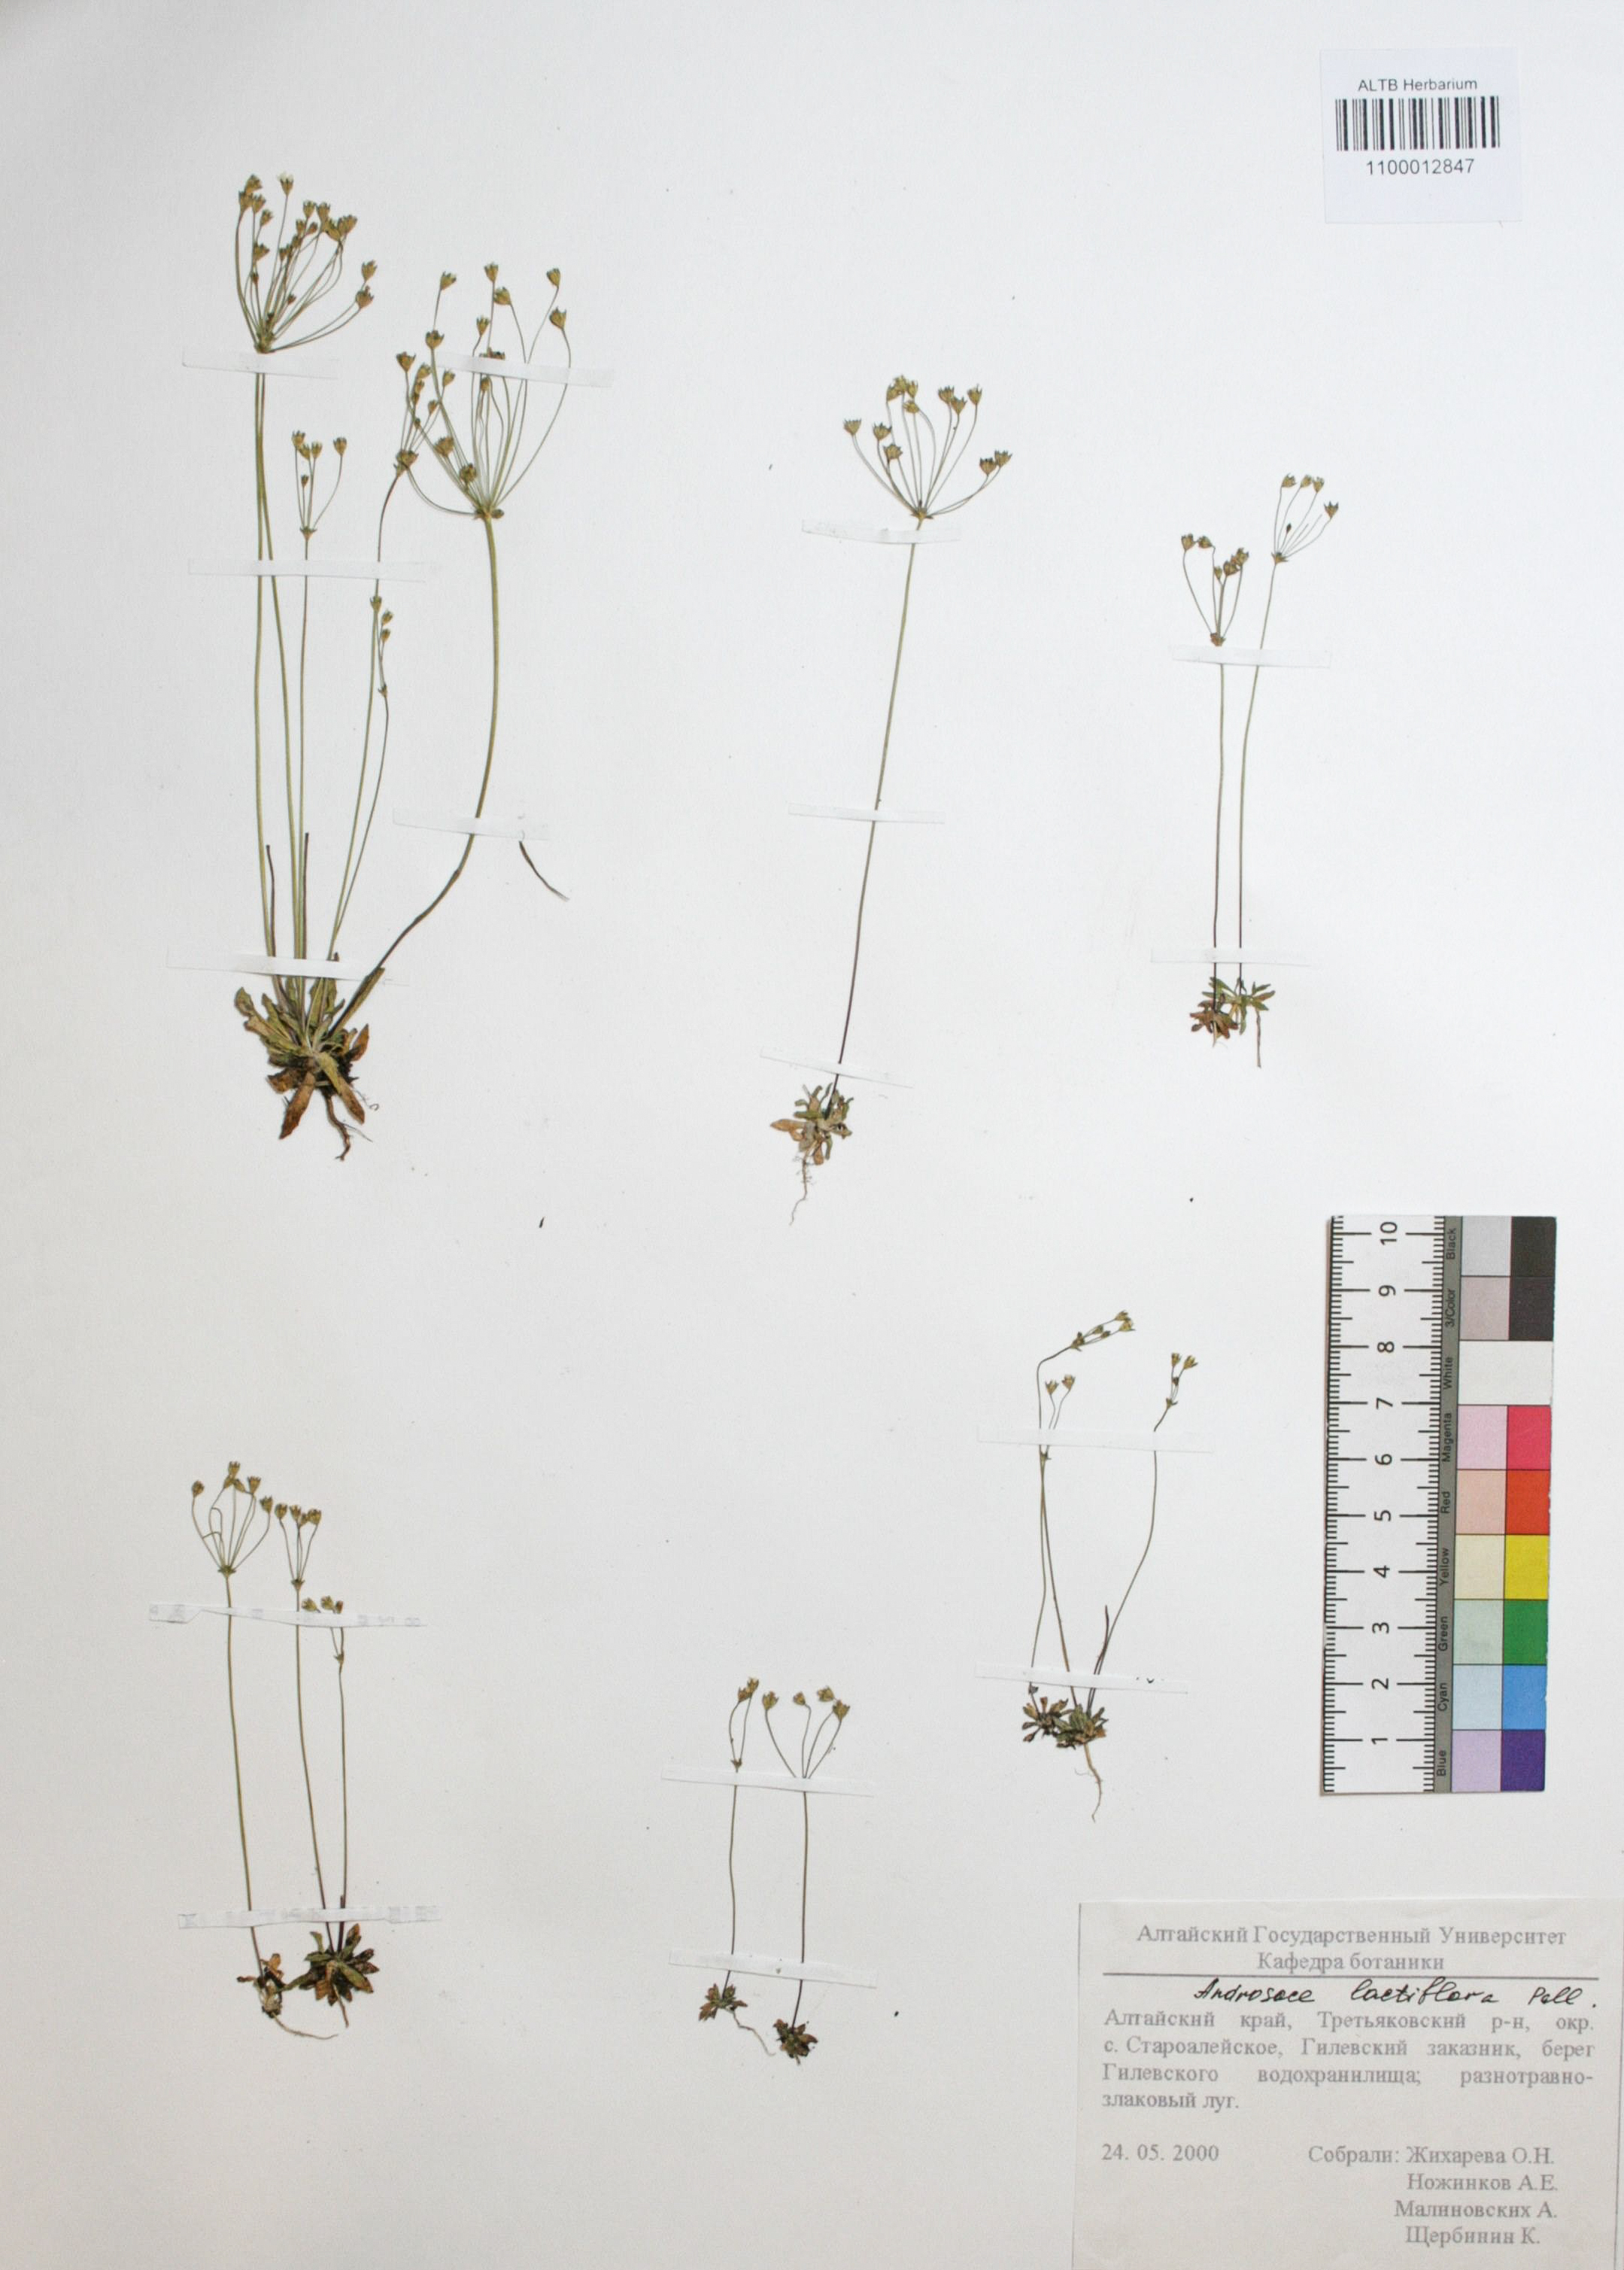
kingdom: Plantae
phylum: Tracheophyta
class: Magnoliopsida
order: Ericales
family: Primulaceae
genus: Androsace
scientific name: Androsace lactiflora
